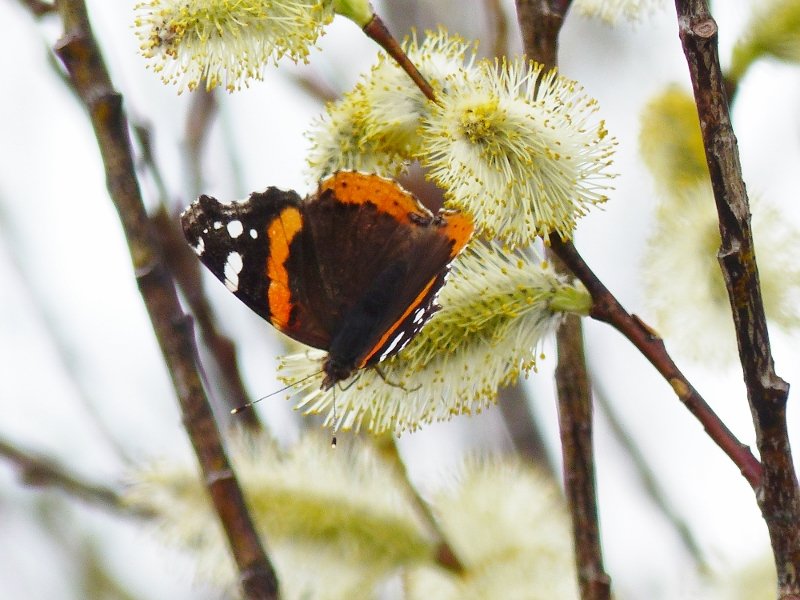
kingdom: Animalia
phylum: Arthropoda
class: Insecta
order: Lepidoptera
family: Nymphalidae
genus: Vanessa
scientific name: Vanessa atalanta
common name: Red Admiral
